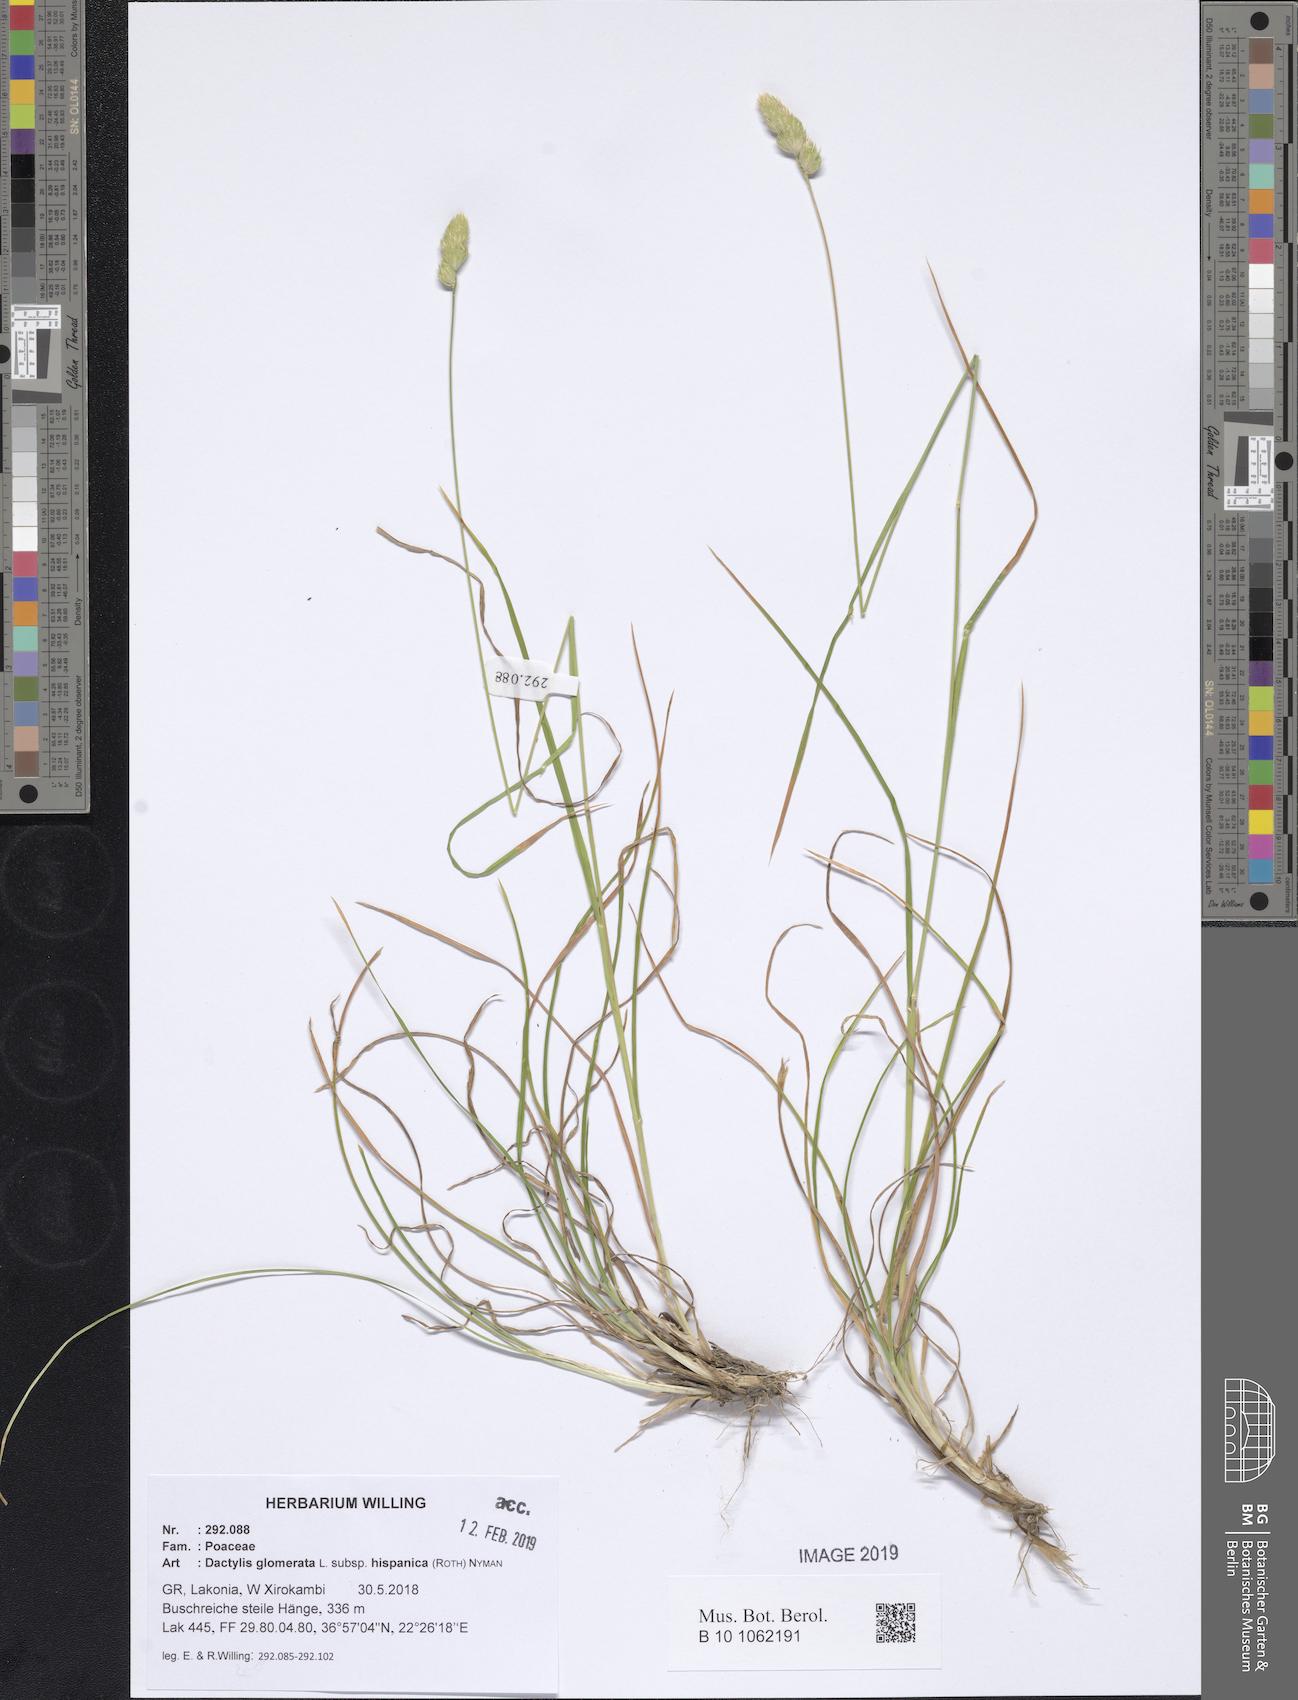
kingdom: Plantae
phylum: Tracheophyta
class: Liliopsida
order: Poales
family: Poaceae
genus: Dactylis
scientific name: Dactylis glomerata
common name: Orchardgrass
